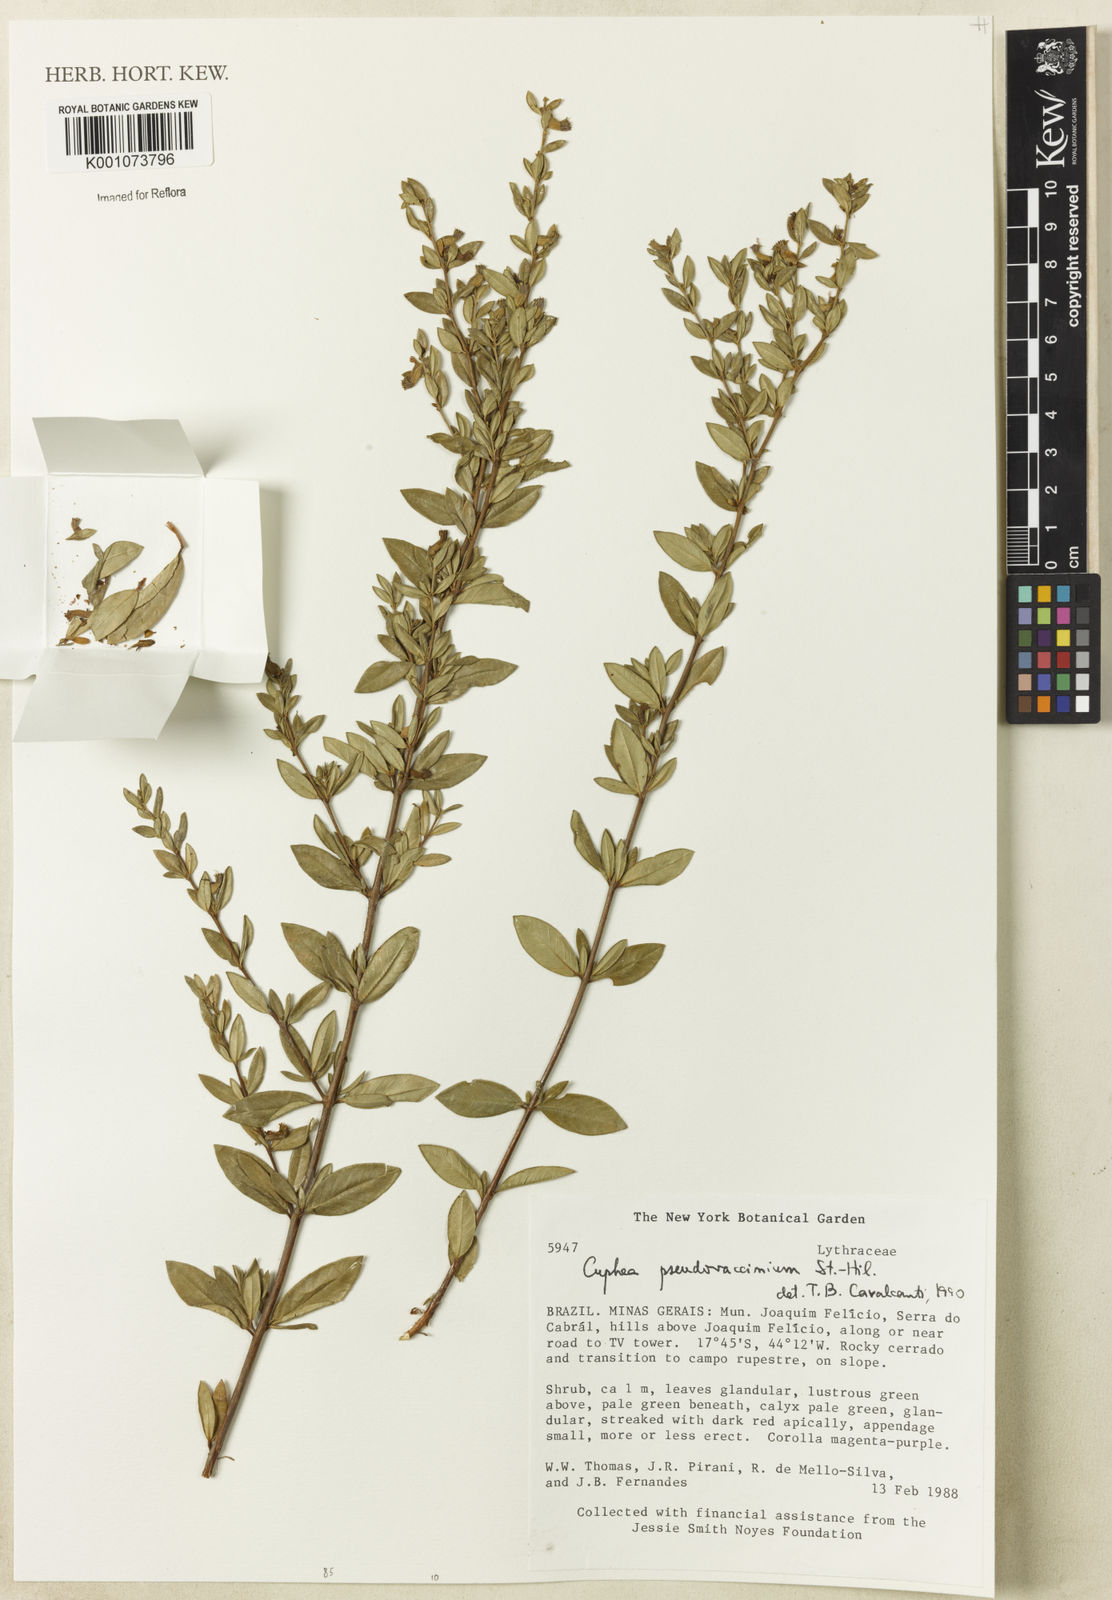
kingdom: Plantae
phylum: Tracheophyta
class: Magnoliopsida
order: Myrtales
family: Lythraceae
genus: Cuphea
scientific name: Cuphea pseudovaccinium
